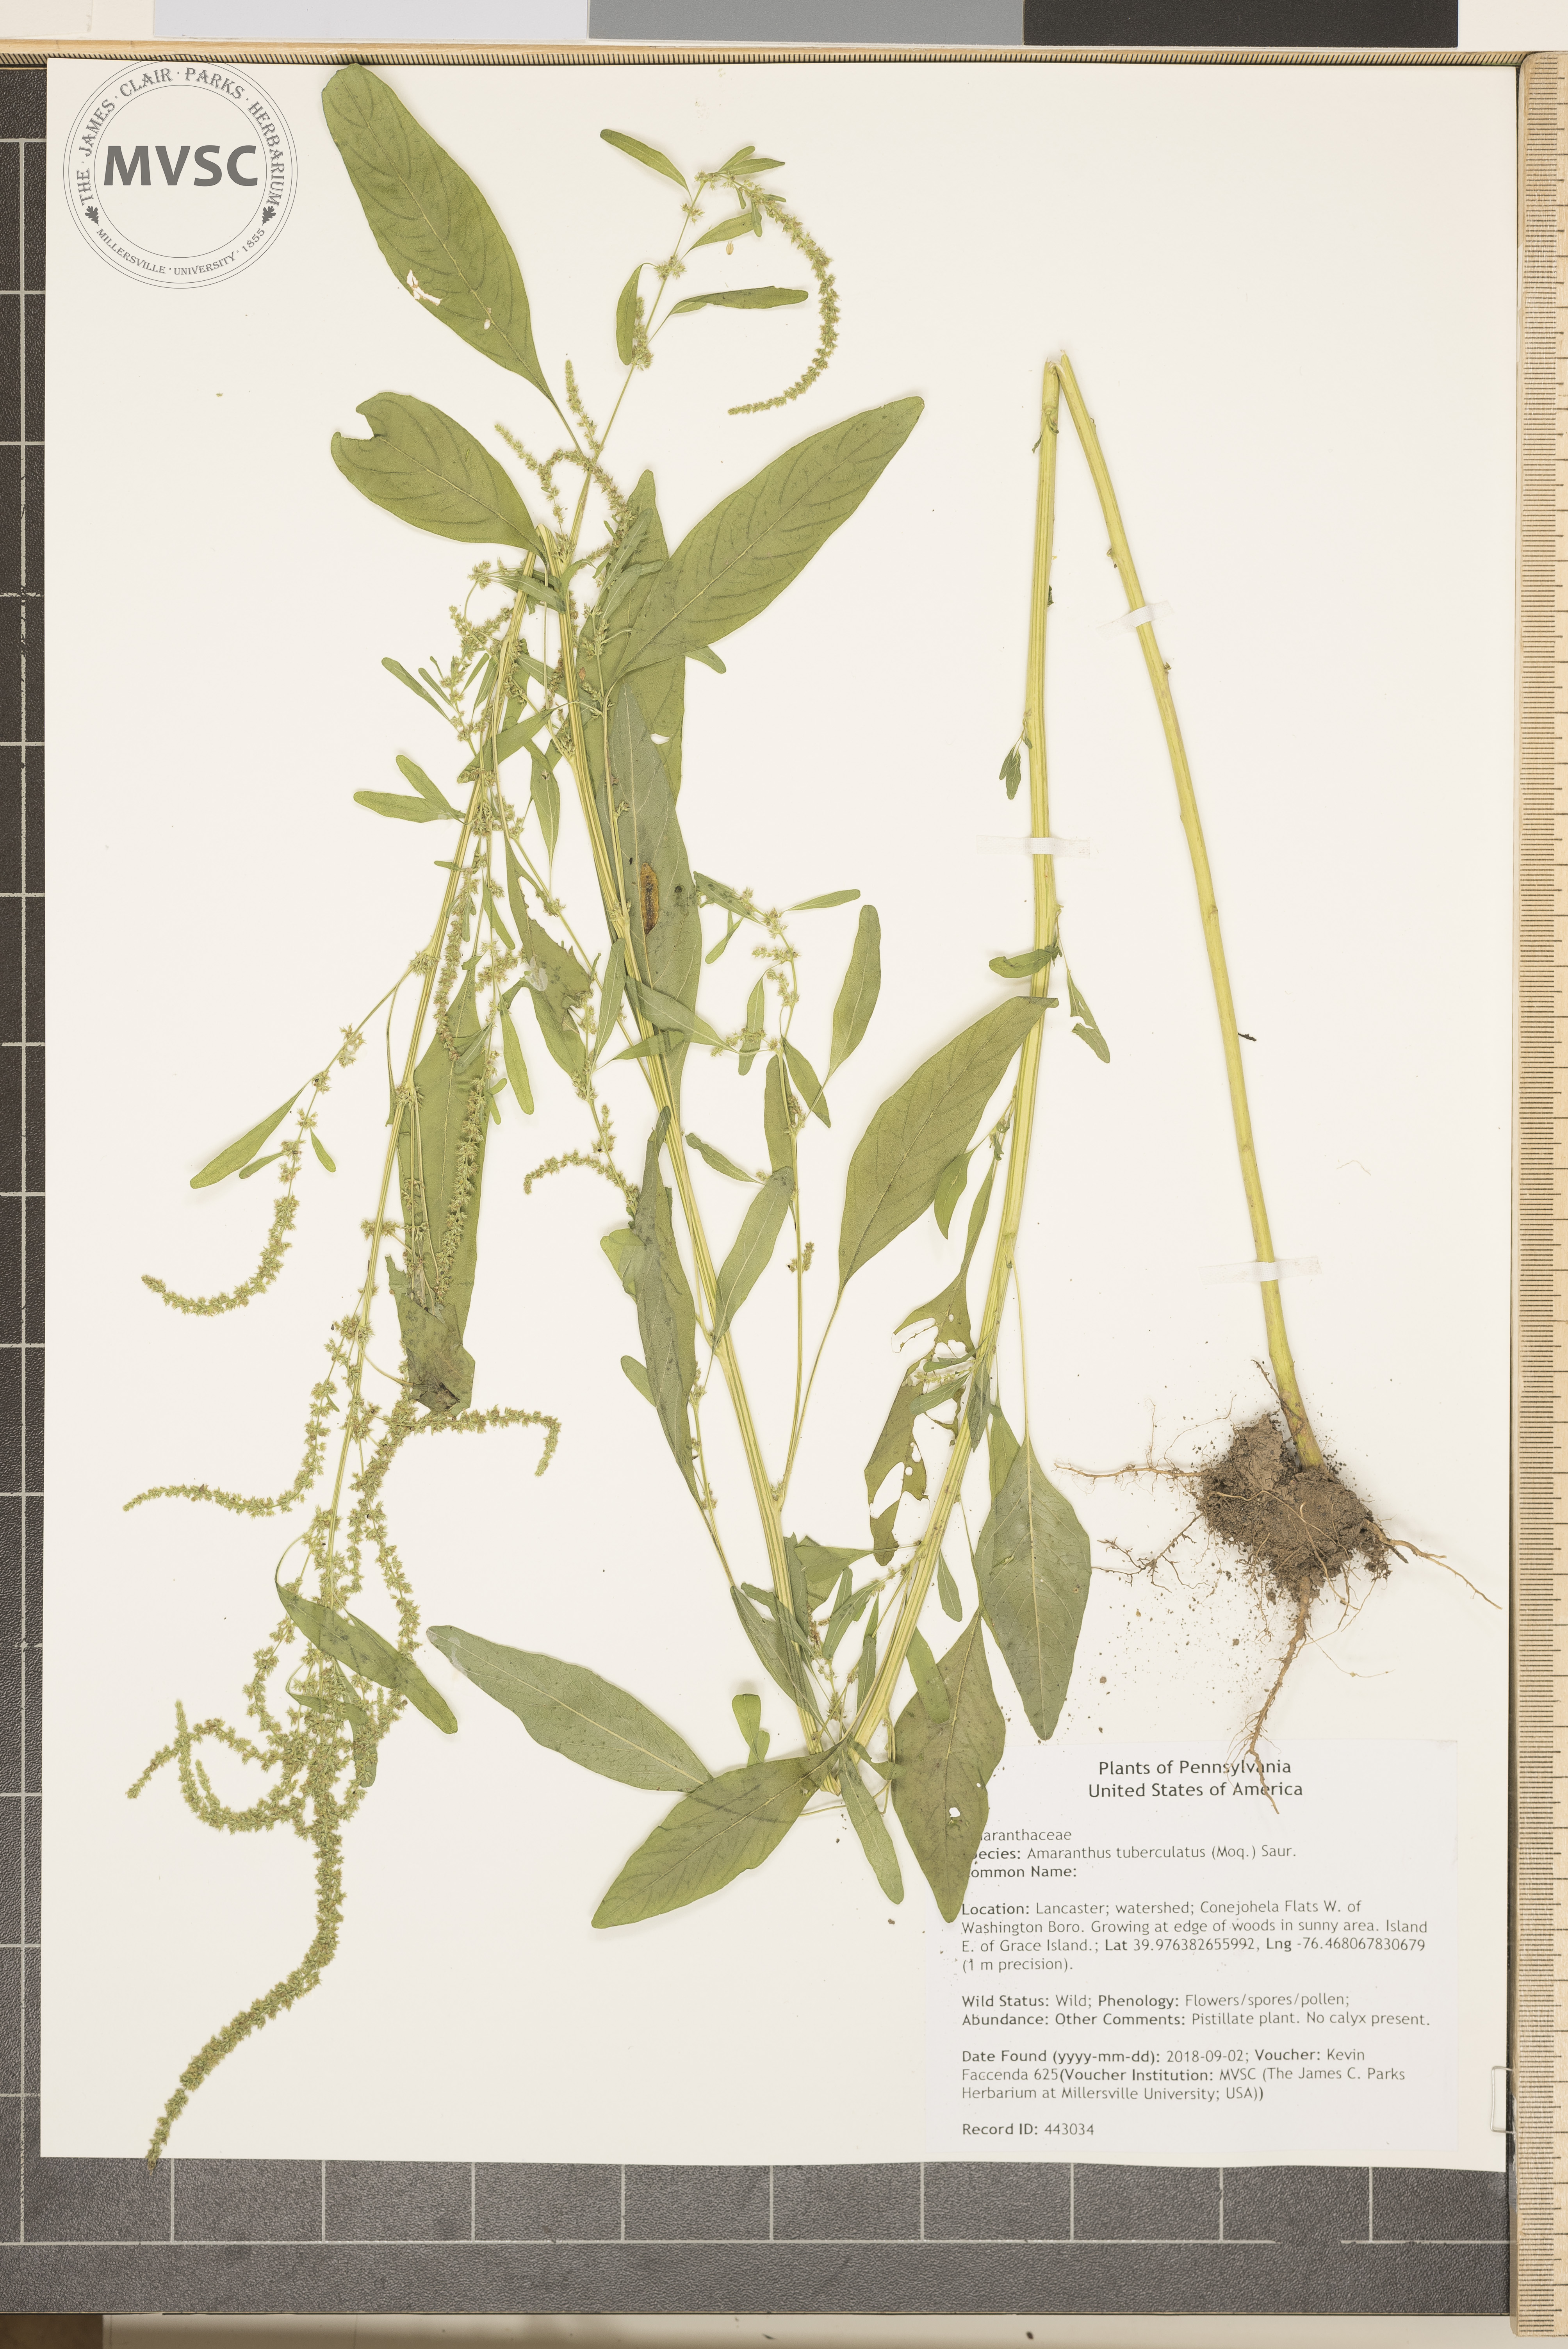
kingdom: Plantae
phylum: Tracheophyta
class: Magnoliopsida
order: Caryophyllales
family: Amaranthaceae
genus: Amaranthus
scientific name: Amaranthus tuberculatus
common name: Rough-fruit amaranth
